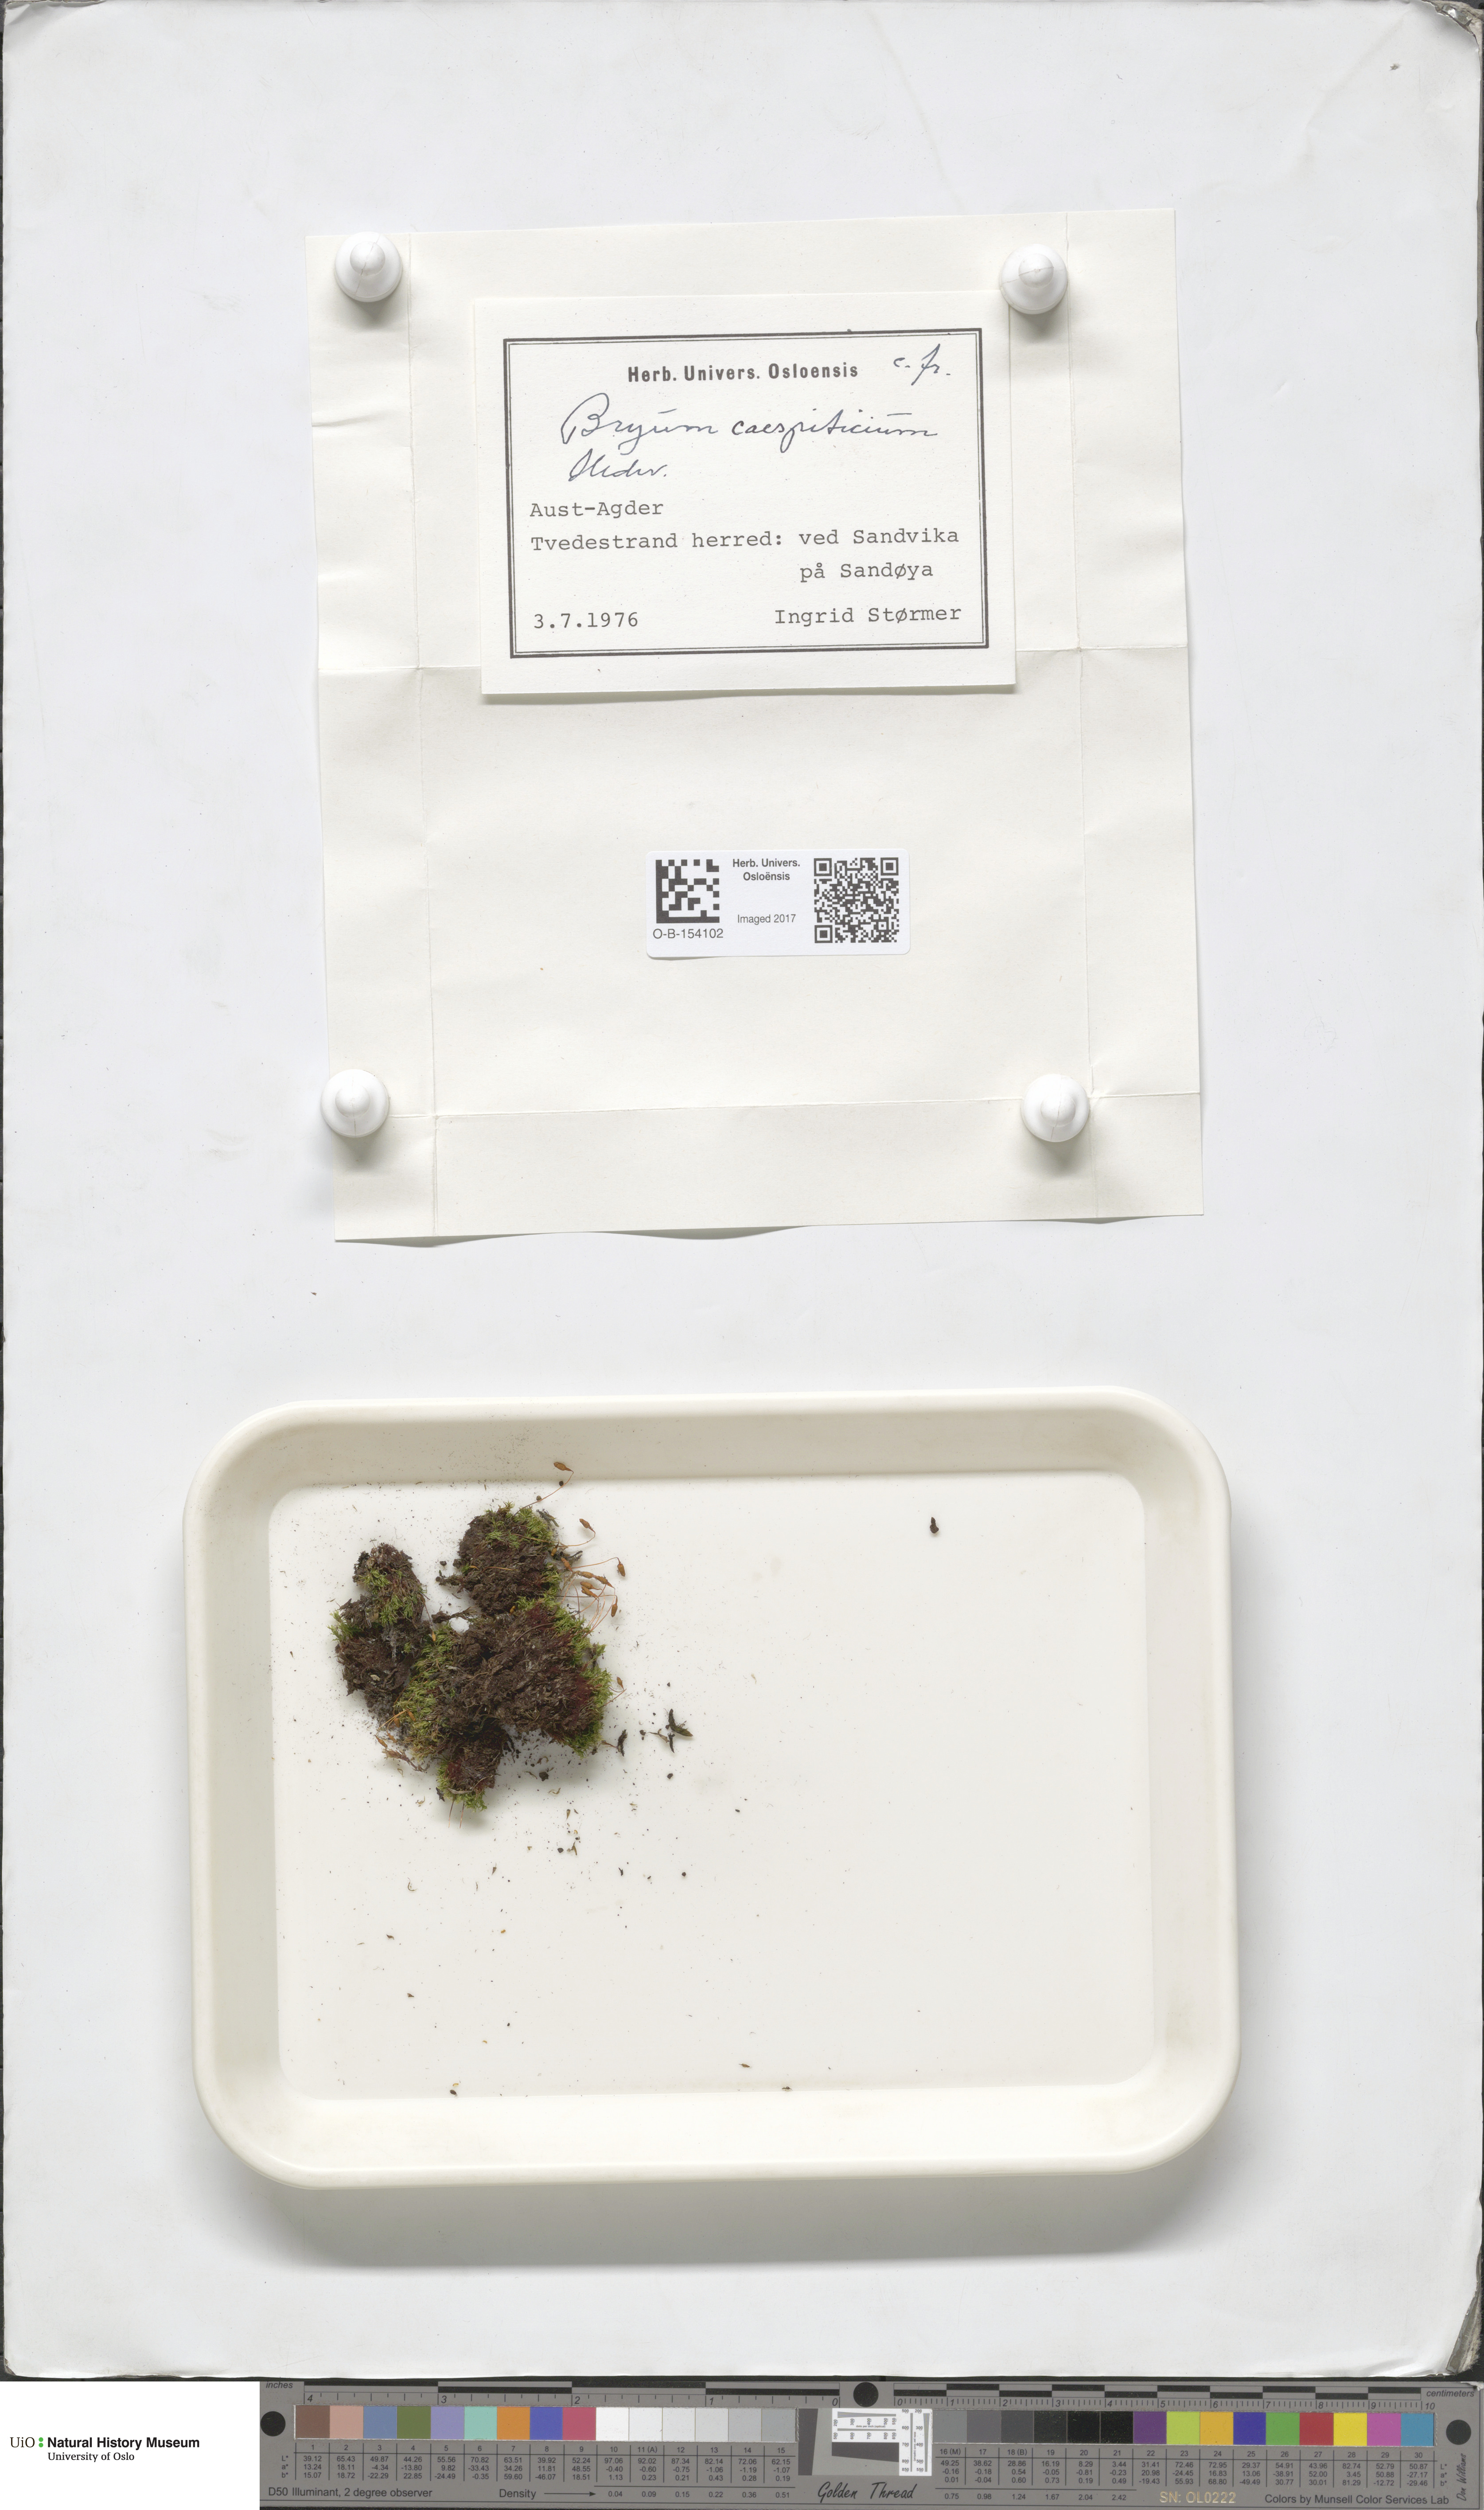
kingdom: Plantae
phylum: Bryophyta
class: Bryopsida
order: Bryales
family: Bryaceae
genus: Gemmabryum
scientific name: Gemmabryum caespiticium
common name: Handbell moss
